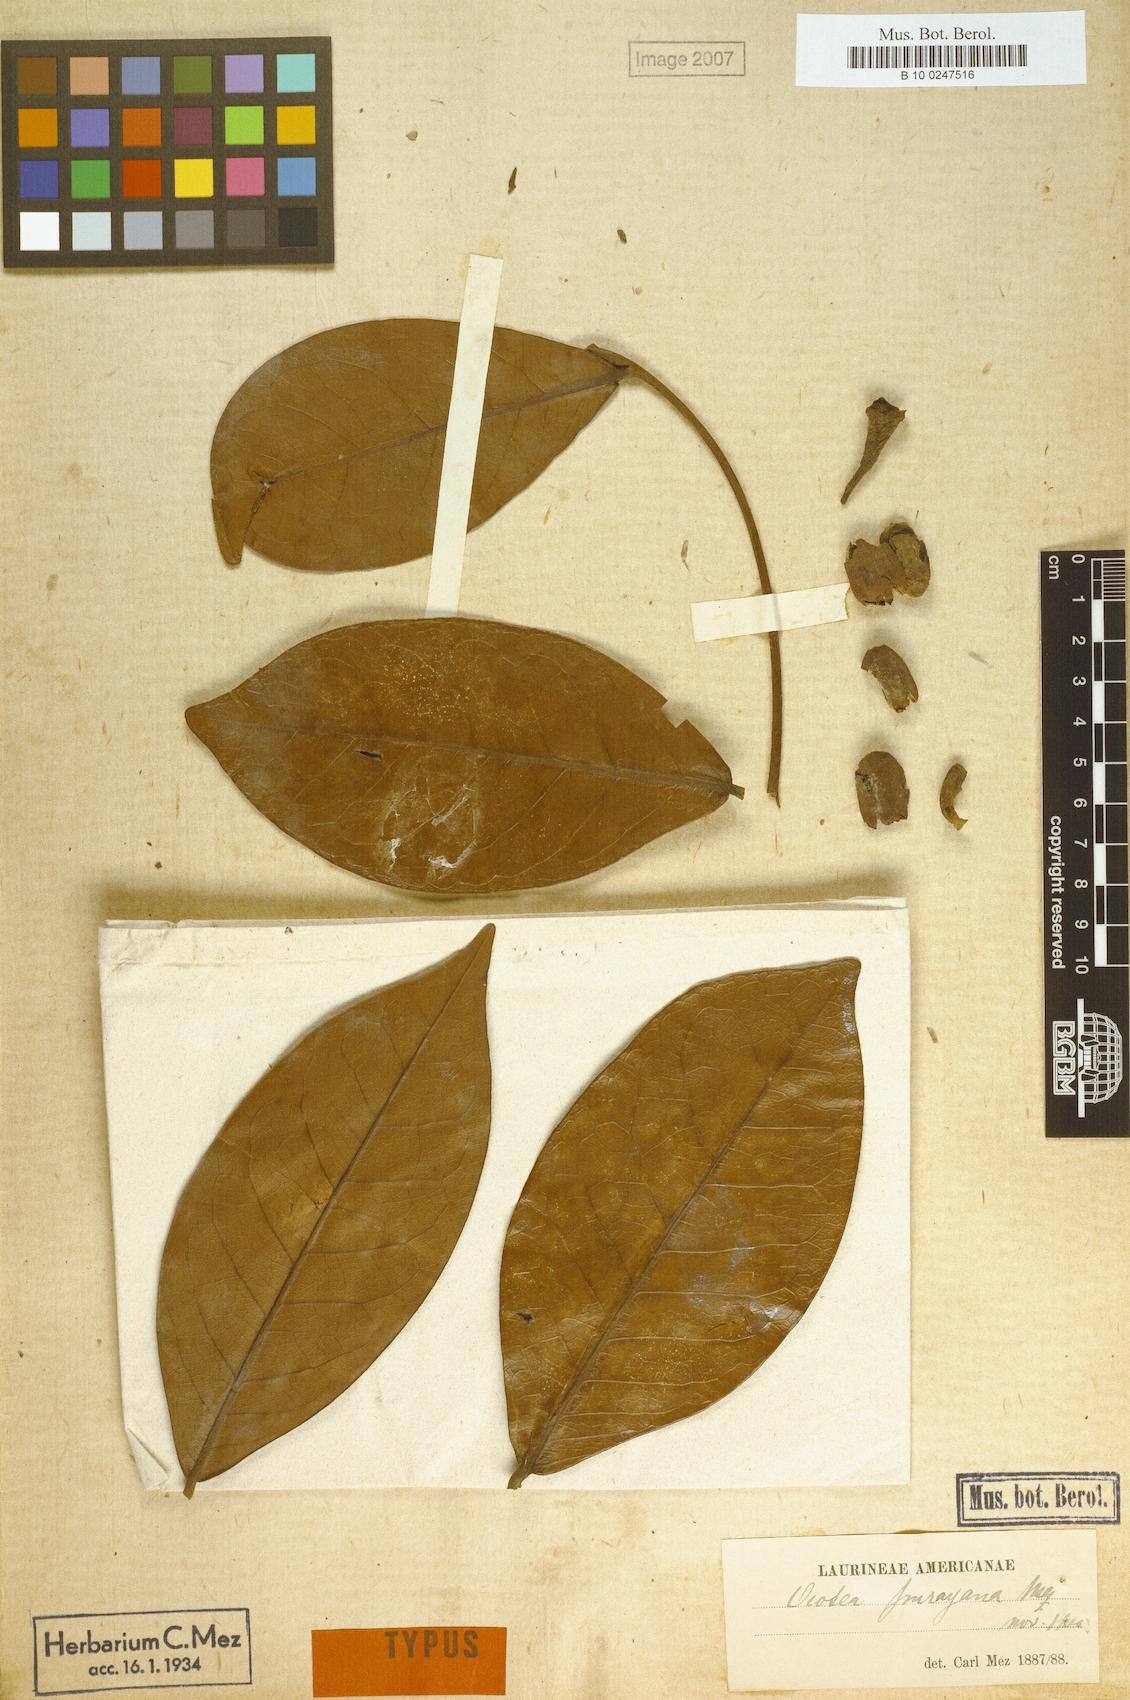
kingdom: Plantae
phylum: Tracheophyta
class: Magnoliopsida
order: Laurales
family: Lauraceae
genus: Ocotea
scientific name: Ocotea imrayana
